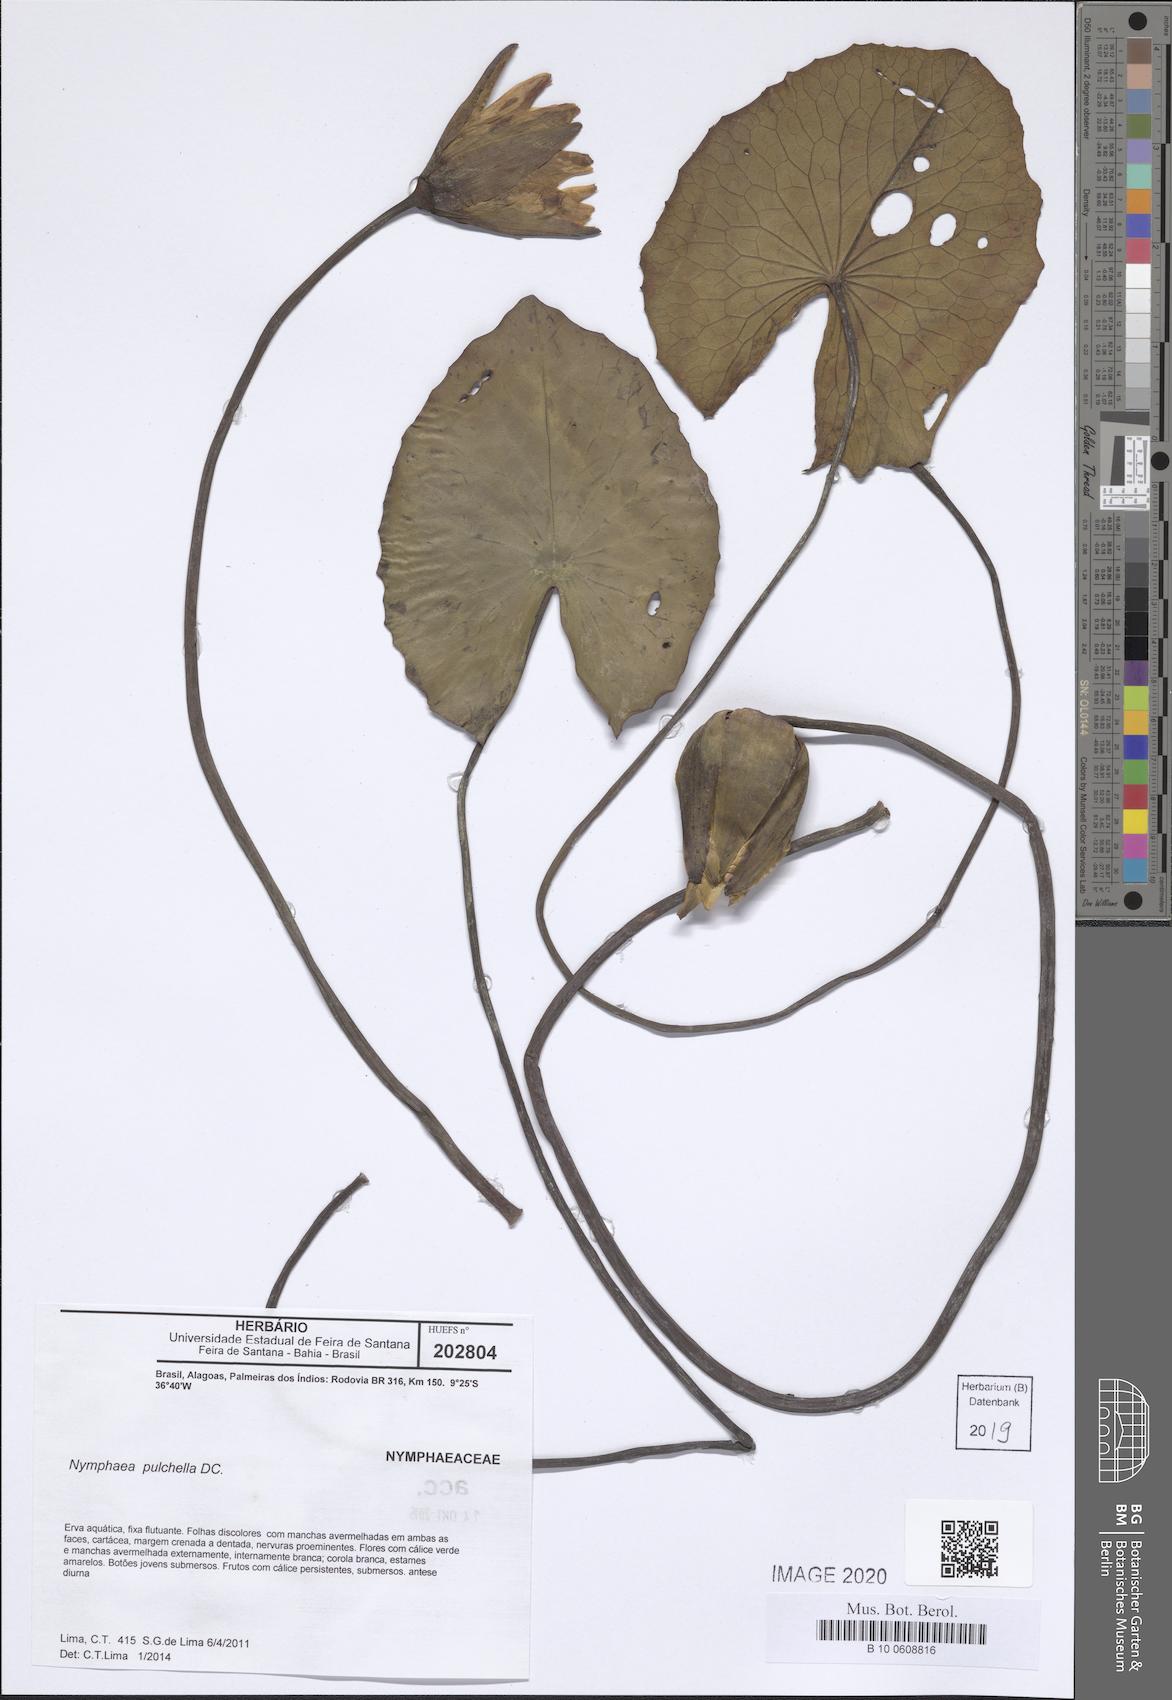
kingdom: Plantae
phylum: Tracheophyta
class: Magnoliopsida
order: Nymphaeales
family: Nymphaeaceae
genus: Nymphaea
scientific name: Nymphaea pulchella
